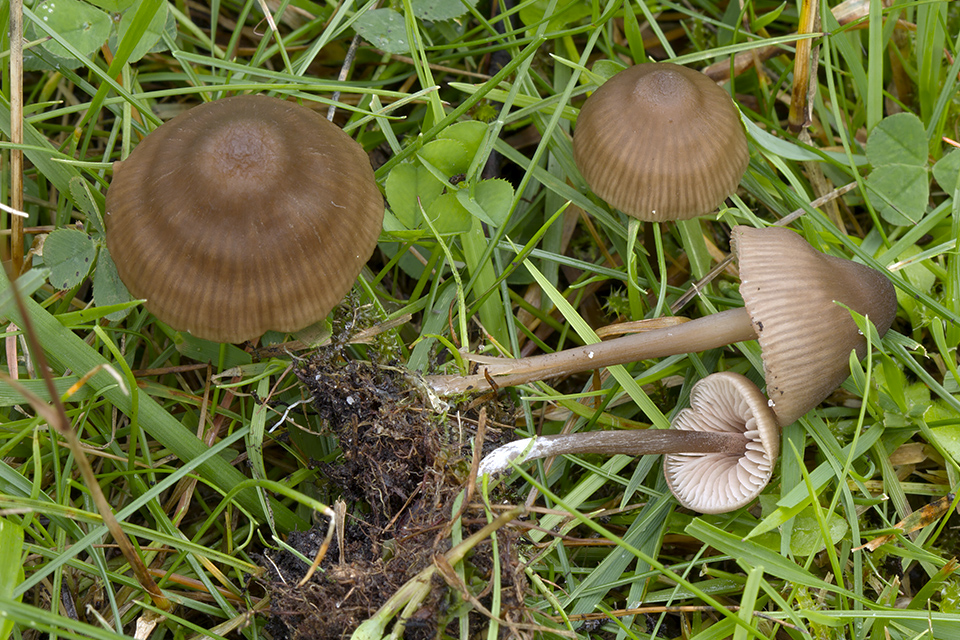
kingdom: Fungi
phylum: Basidiomycota
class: Agaricomycetes
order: Agaricales
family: Entolomataceae
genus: Entoloma
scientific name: Entoloma clandestinum
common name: tykbladet rødblad
